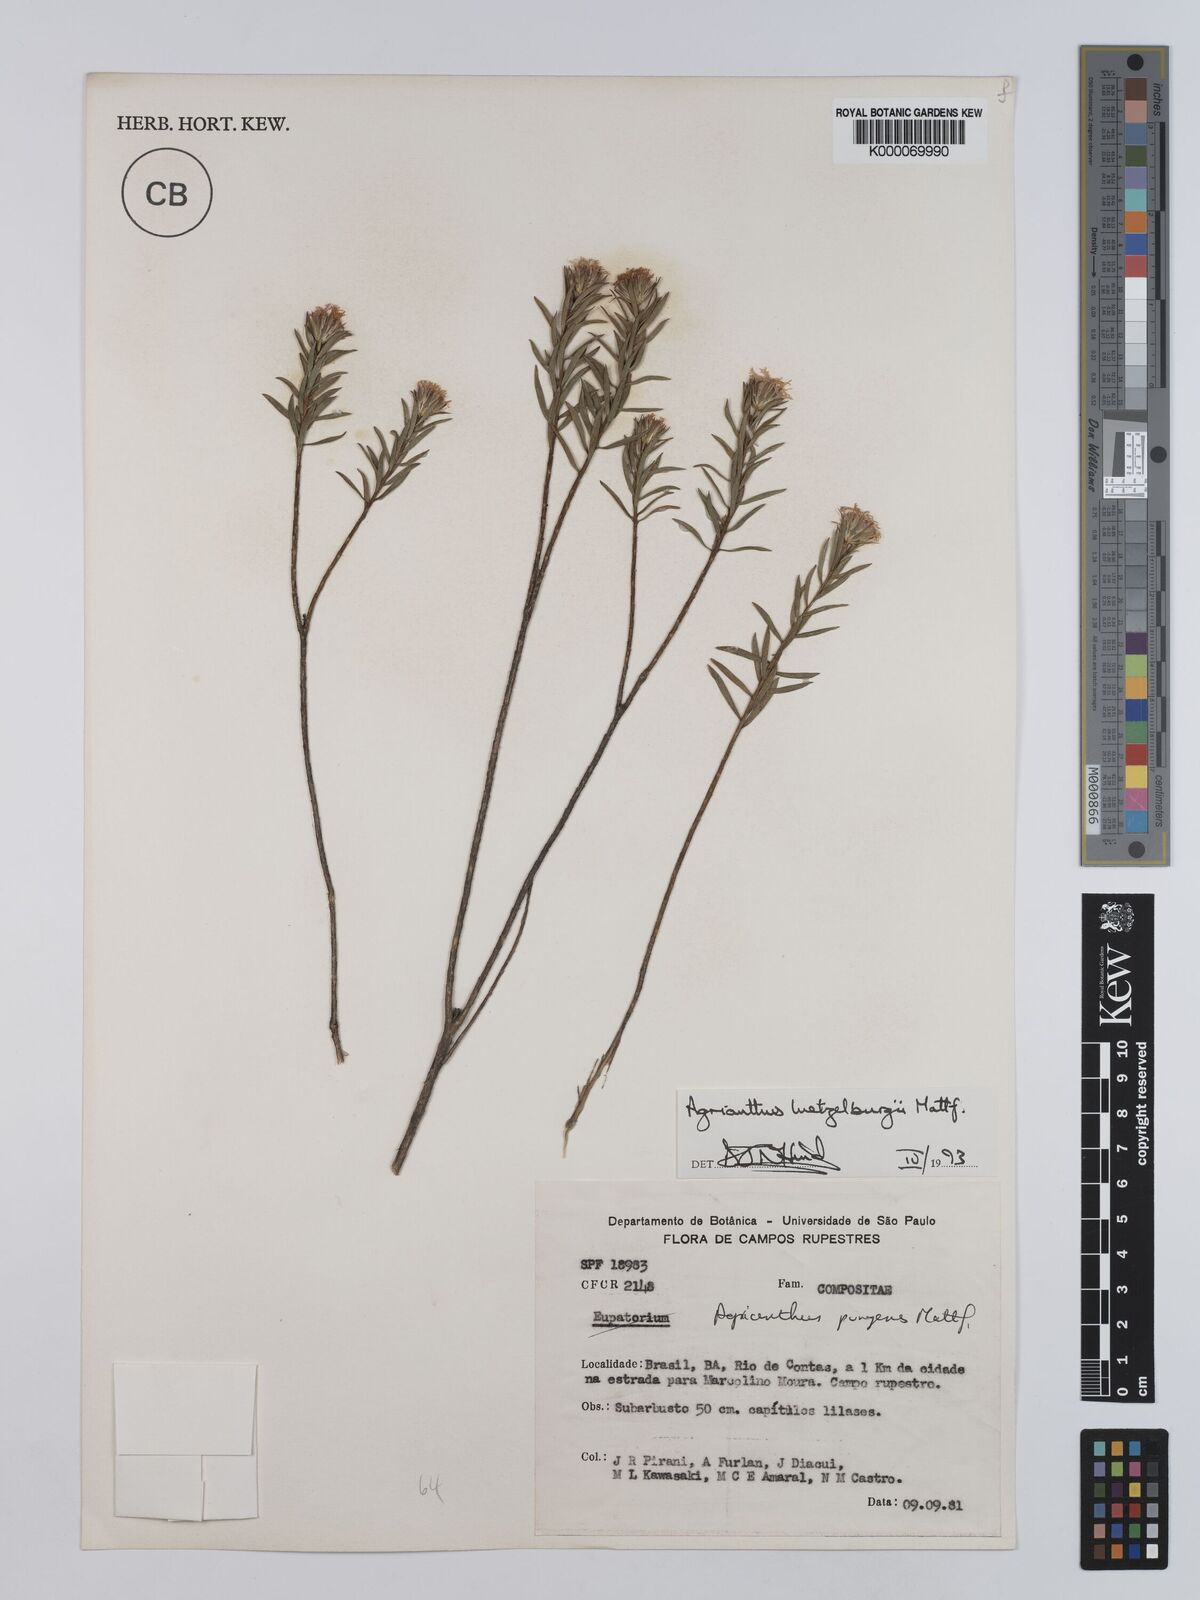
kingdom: Plantae
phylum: Tracheophyta
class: Magnoliopsida
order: Asterales
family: Asteraceae
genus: Agrianthus
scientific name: Agrianthus
